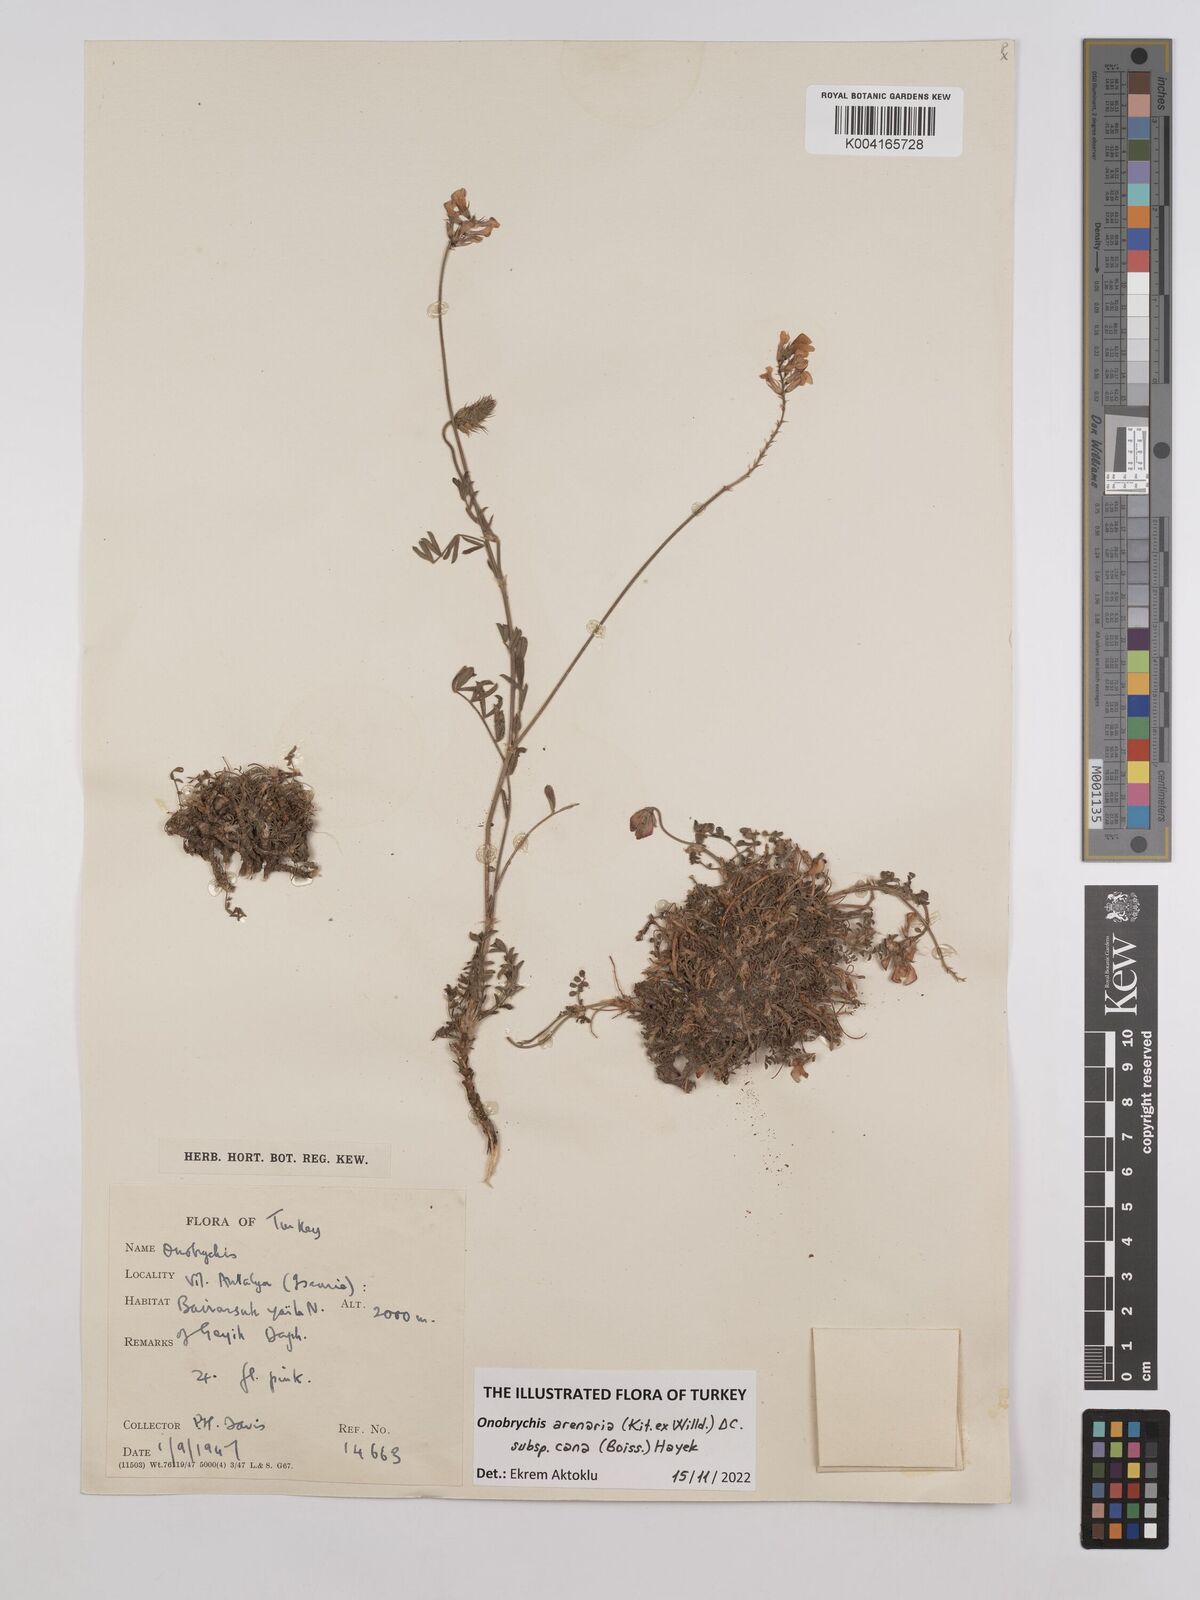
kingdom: Plantae
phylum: Tracheophyta
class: Magnoliopsida
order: Fabales
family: Fabaceae
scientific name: Fabaceae
